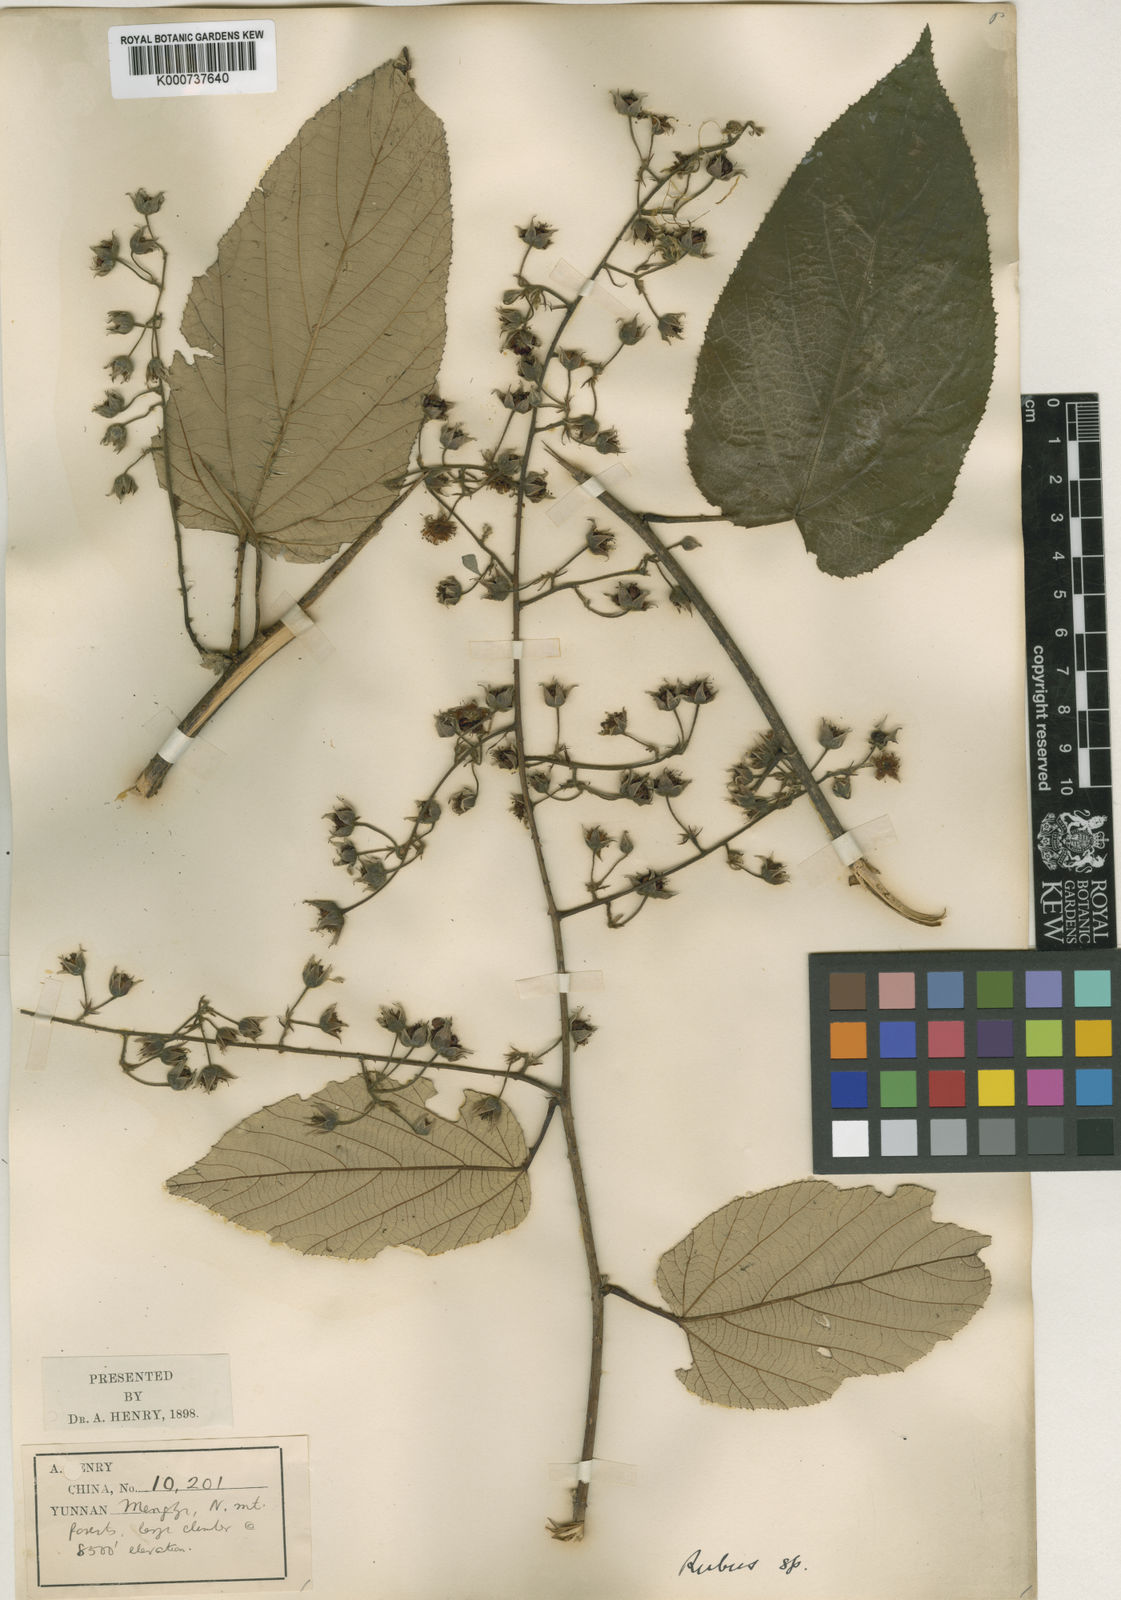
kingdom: Plantae
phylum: Tracheophyta
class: Magnoliopsida
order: Rosales
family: Rosaceae
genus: Rubus
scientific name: Rubus xanthoneurus
